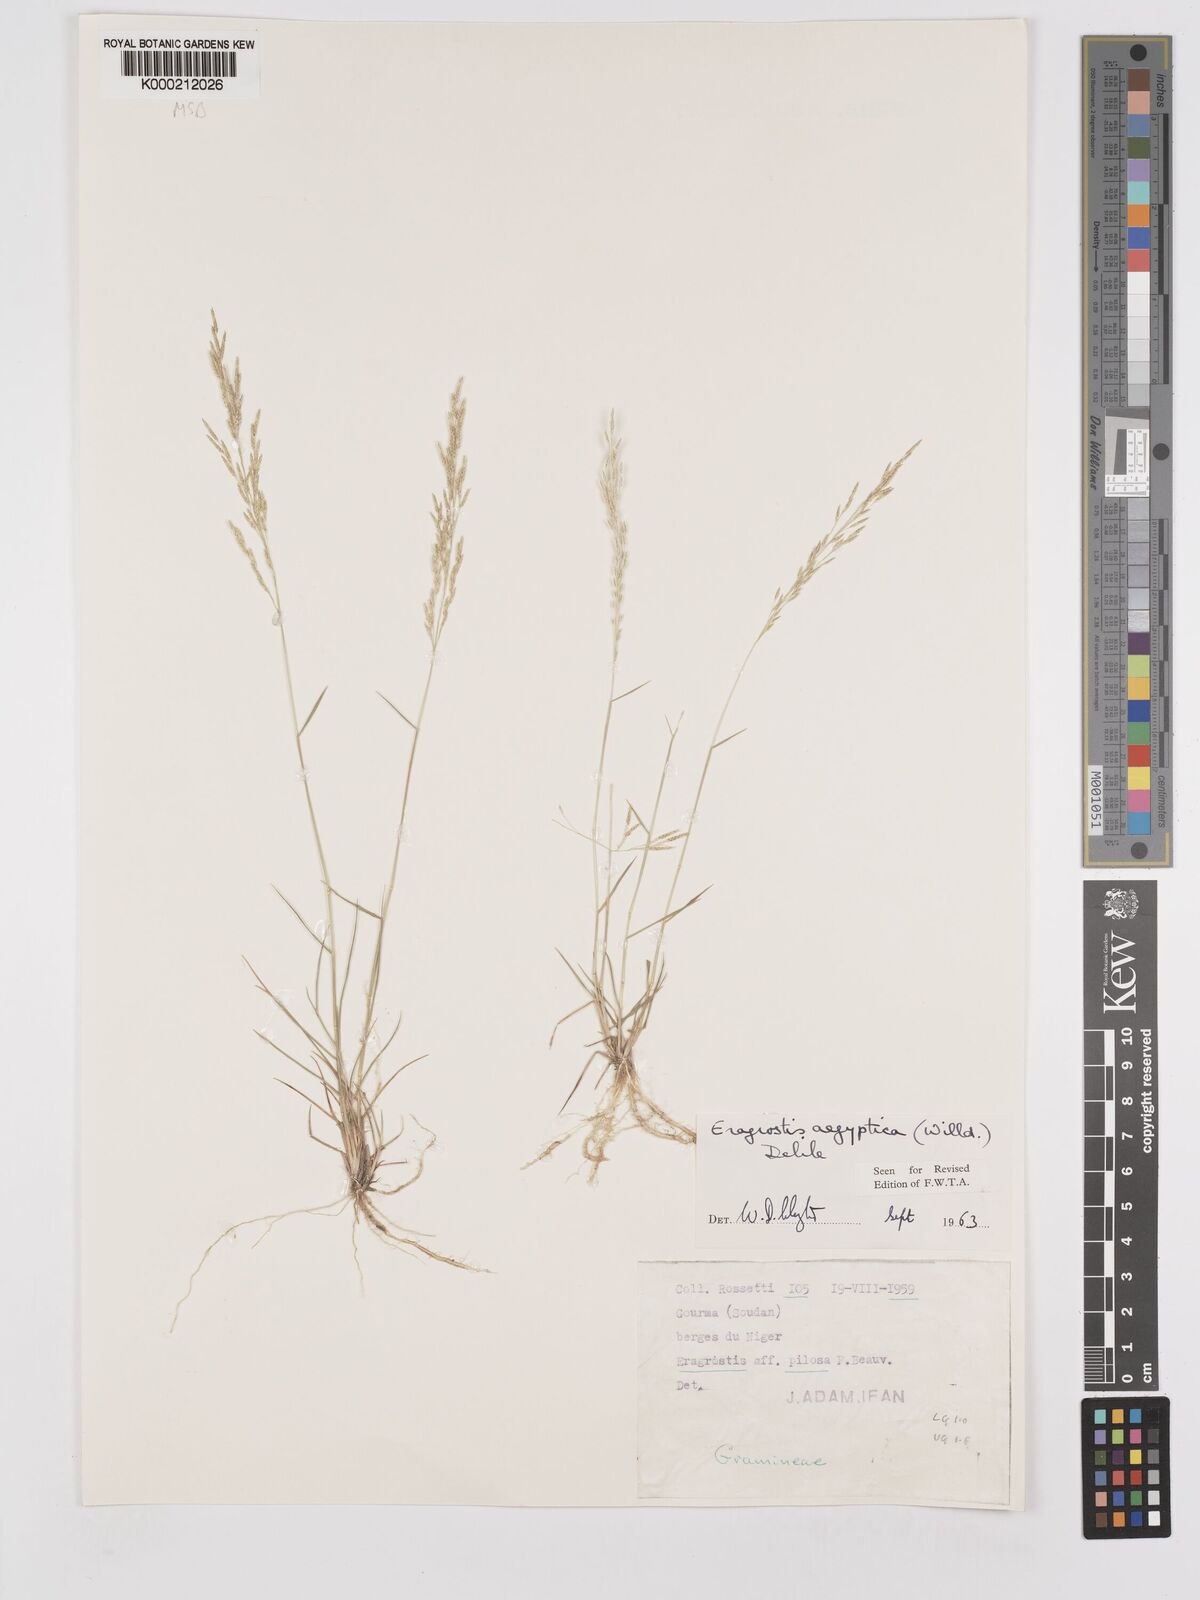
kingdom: Plantae
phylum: Tracheophyta
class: Liliopsida
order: Poales
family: Poaceae
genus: Eragrostis
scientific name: Eragrostis aegyptiaca
